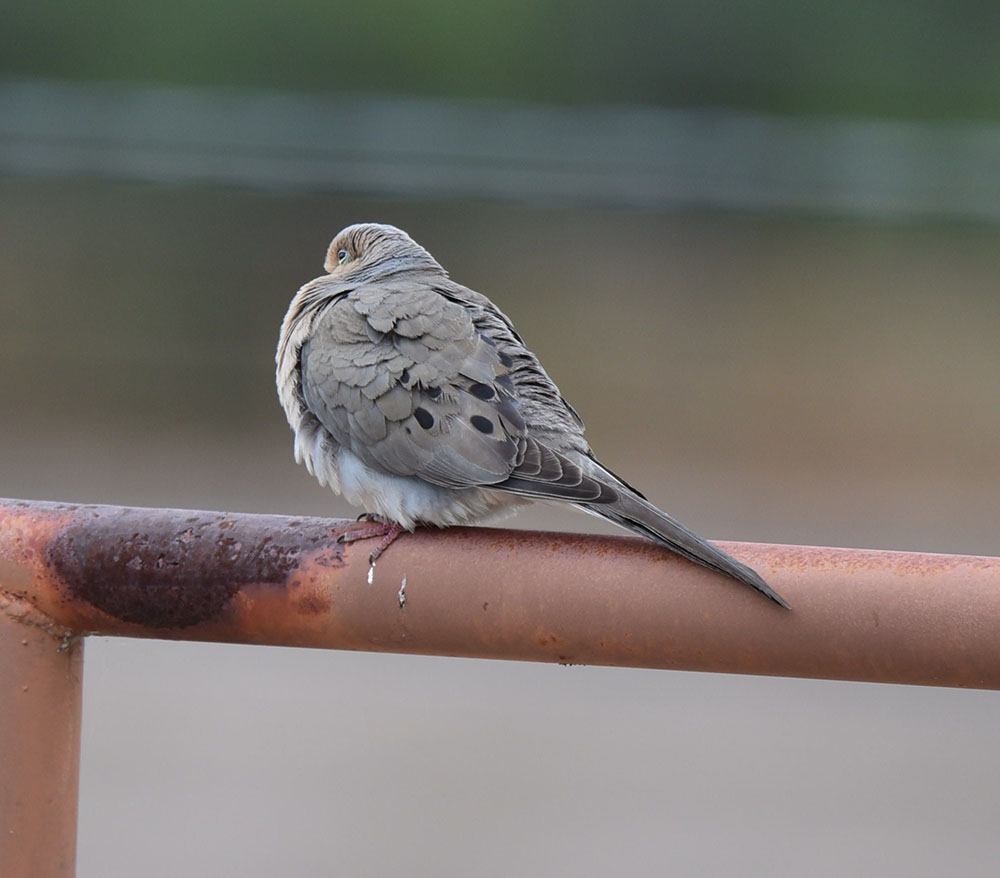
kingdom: Animalia
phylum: Chordata
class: Aves
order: Columbiformes
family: Columbidae
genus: Zenaida
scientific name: Zenaida macroura
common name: Mourning dove
